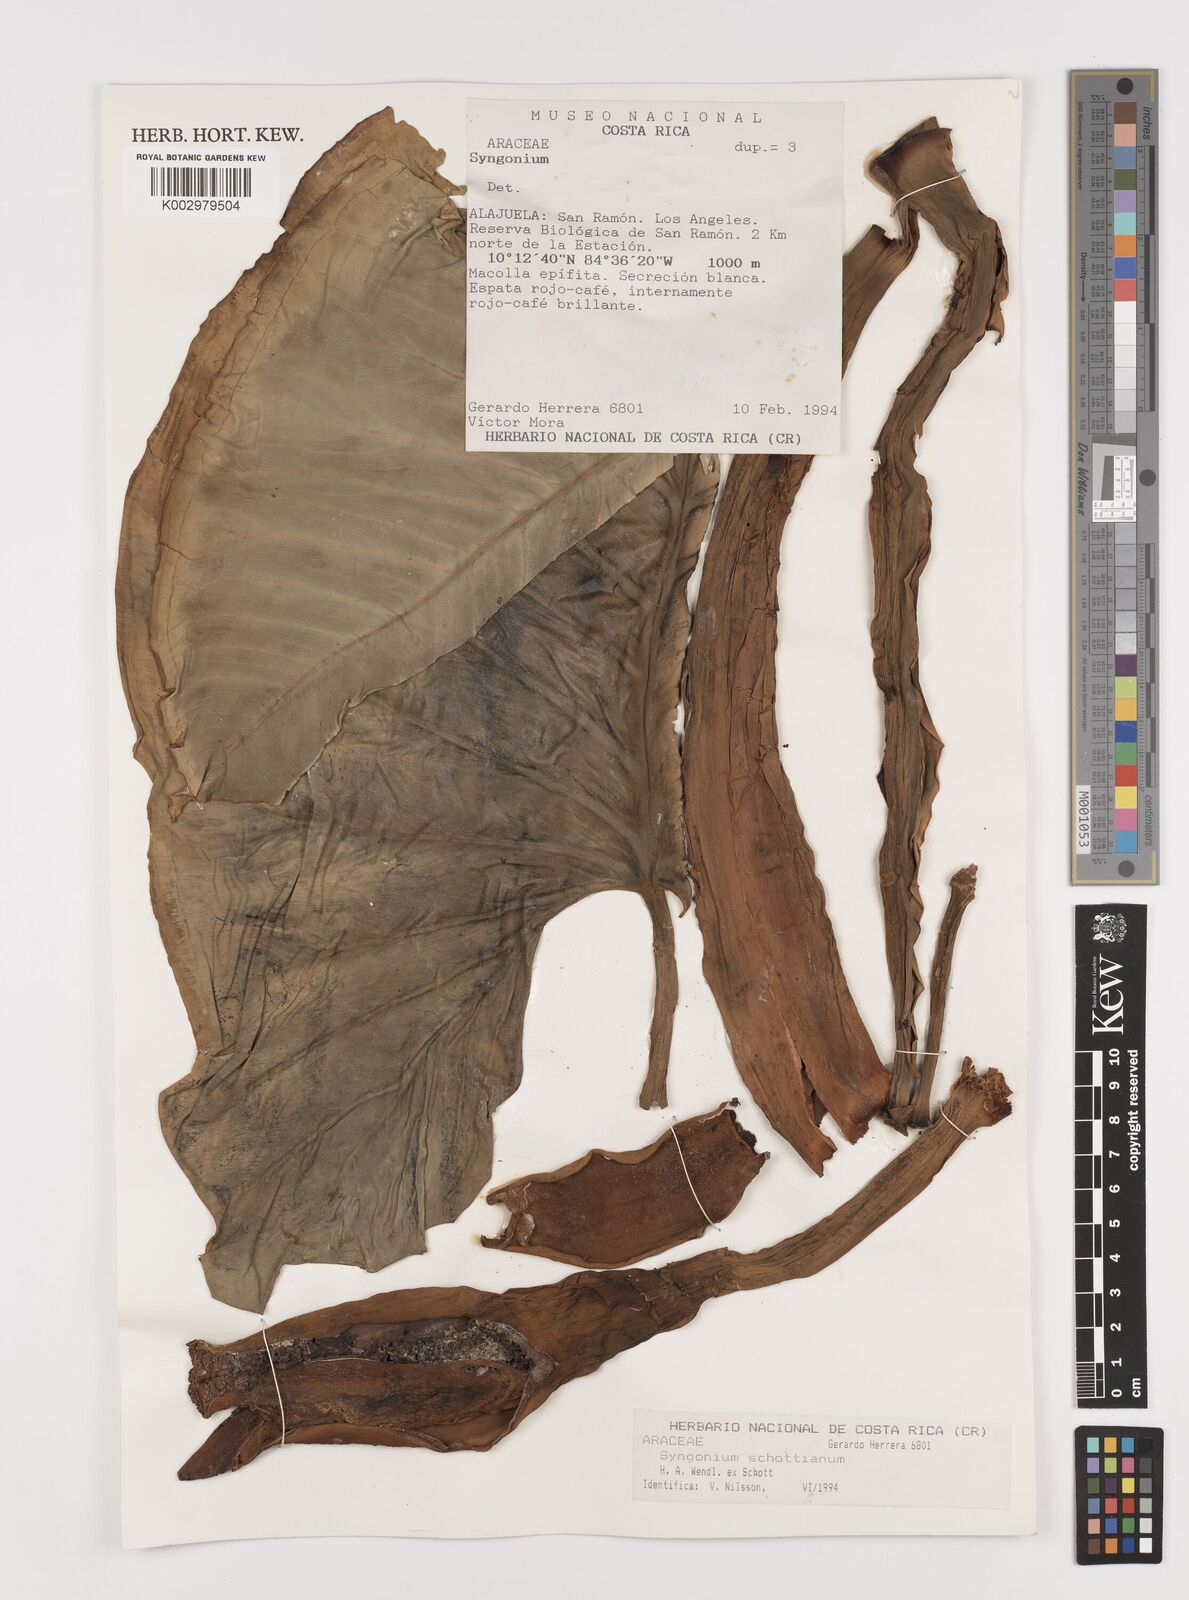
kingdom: Plantae
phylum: Tracheophyta
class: Liliopsida
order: Alismatales
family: Araceae
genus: Syngonium
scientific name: Syngonium schottianum
